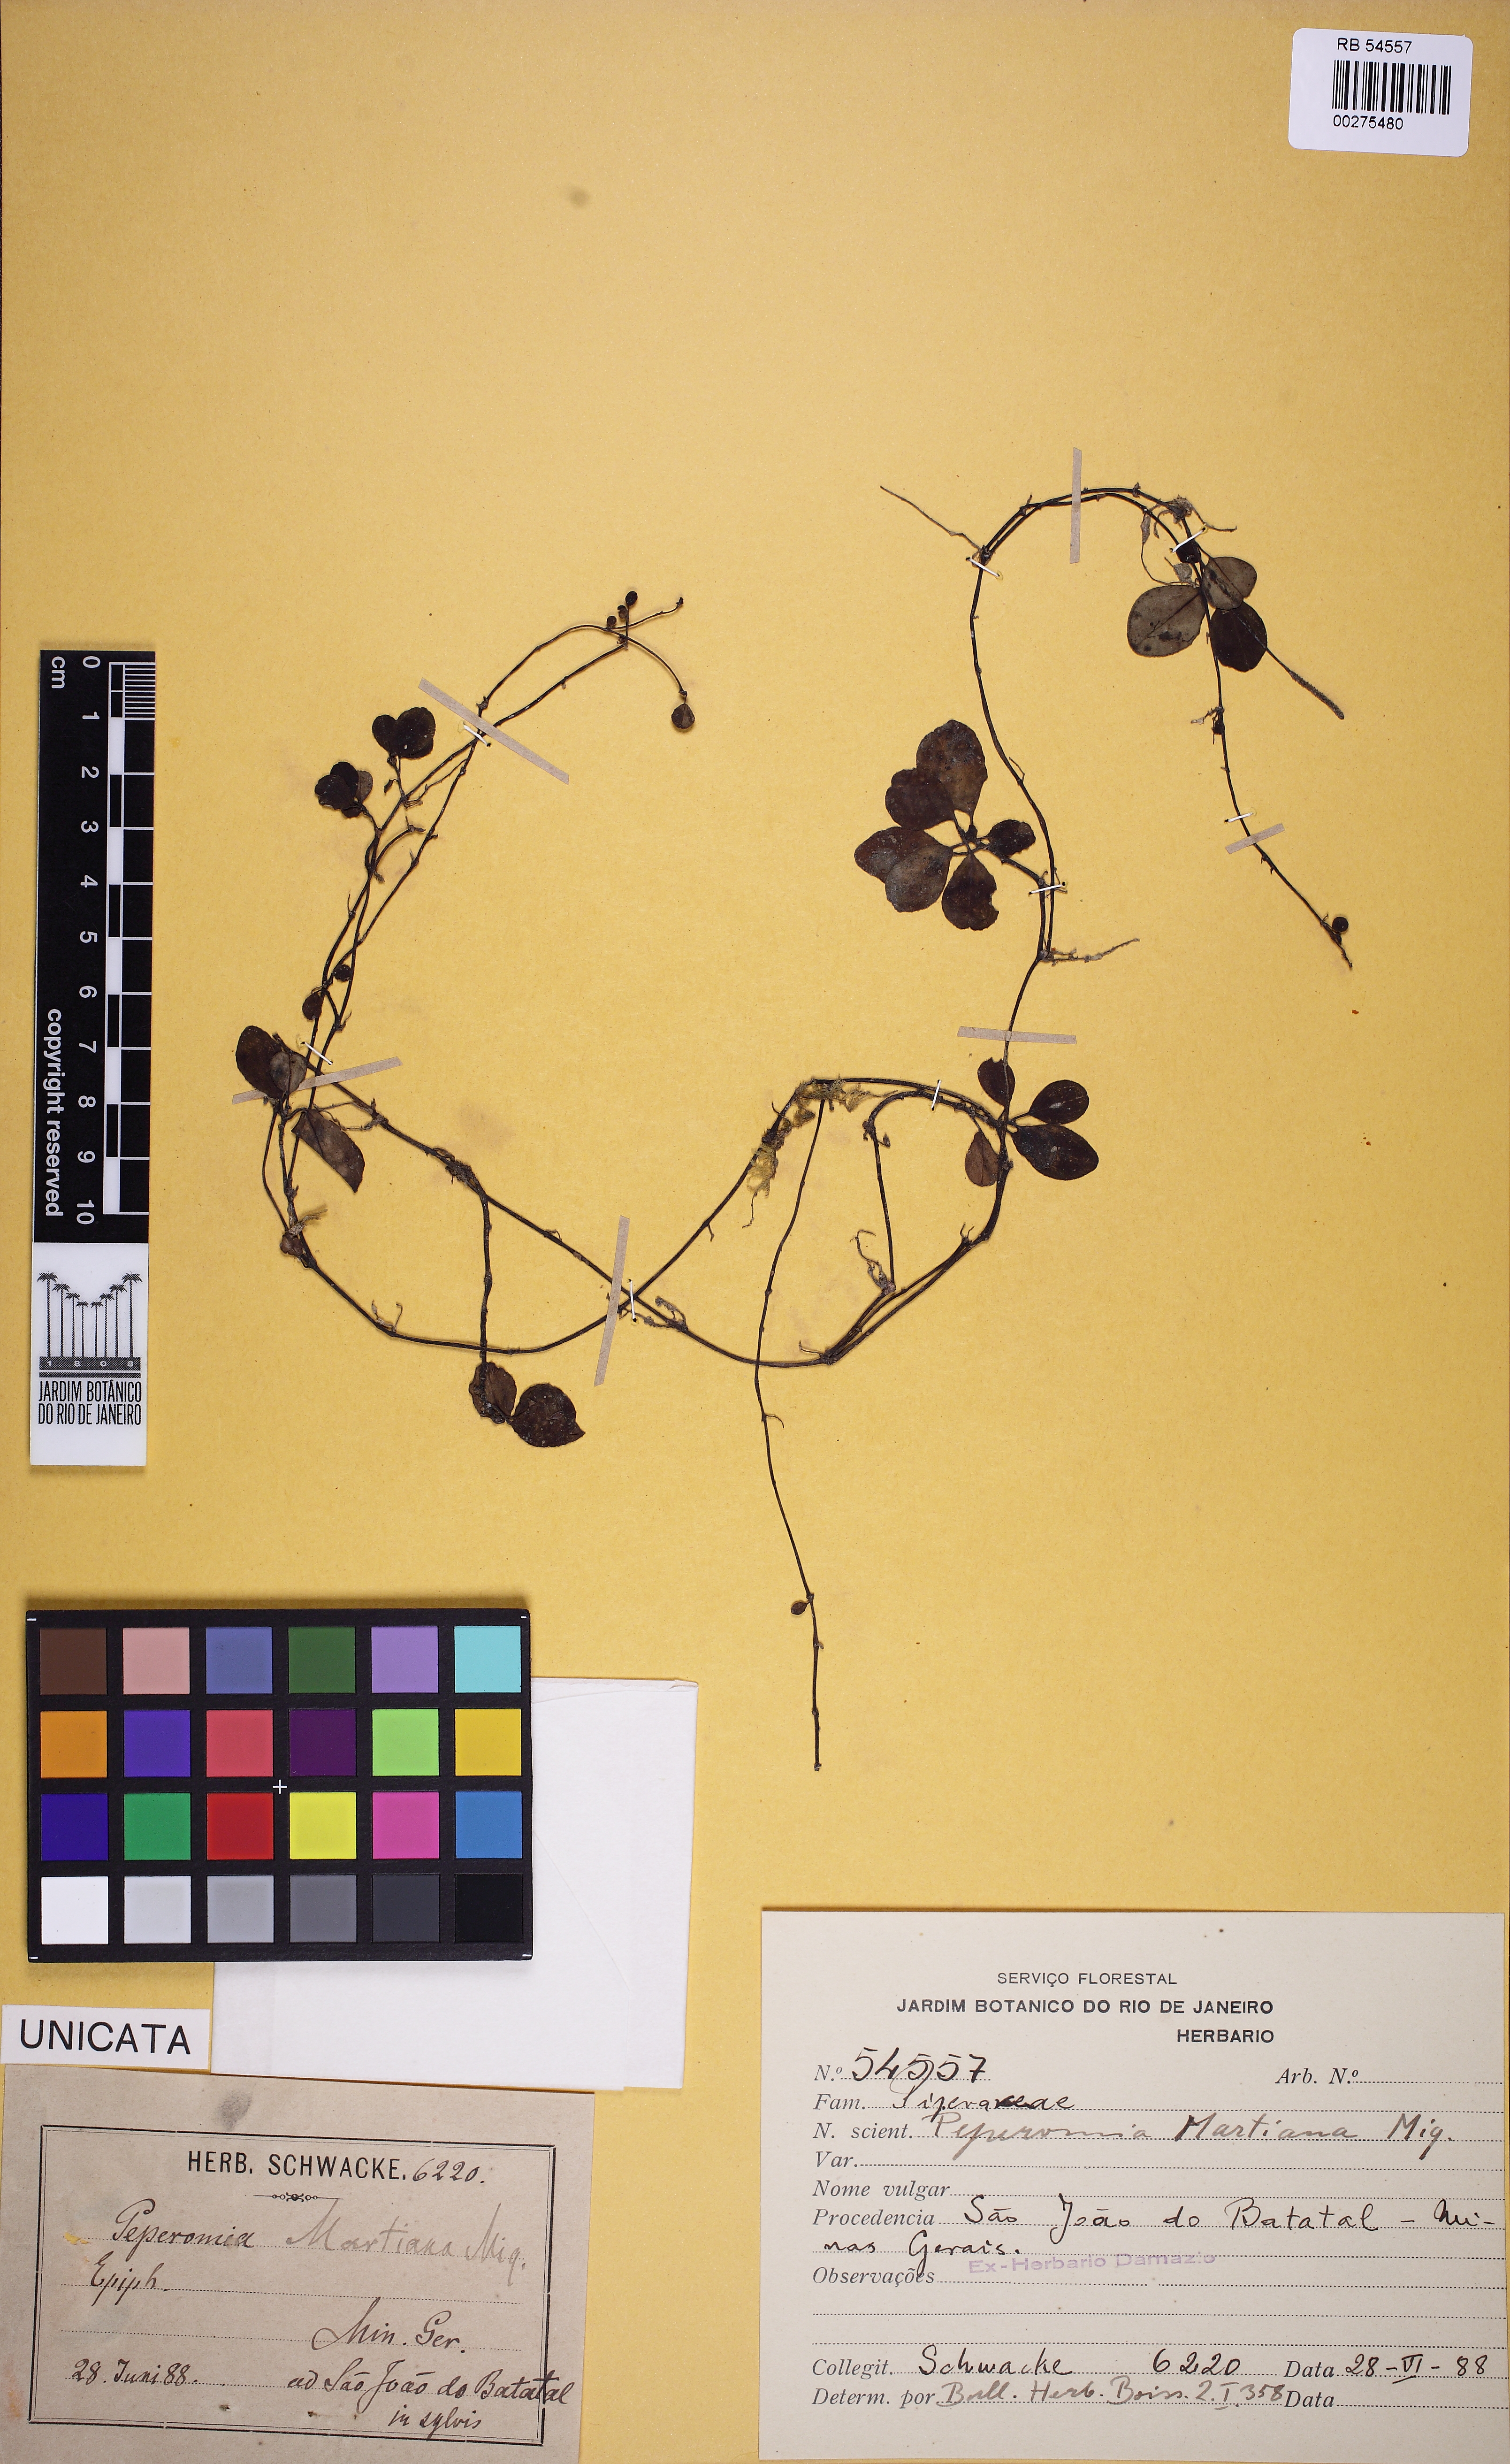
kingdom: Plantae
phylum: Tracheophyta
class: Magnoliopsida
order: Piperales
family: Piperaceae
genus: Peperomia
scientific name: Peperomia martiana
